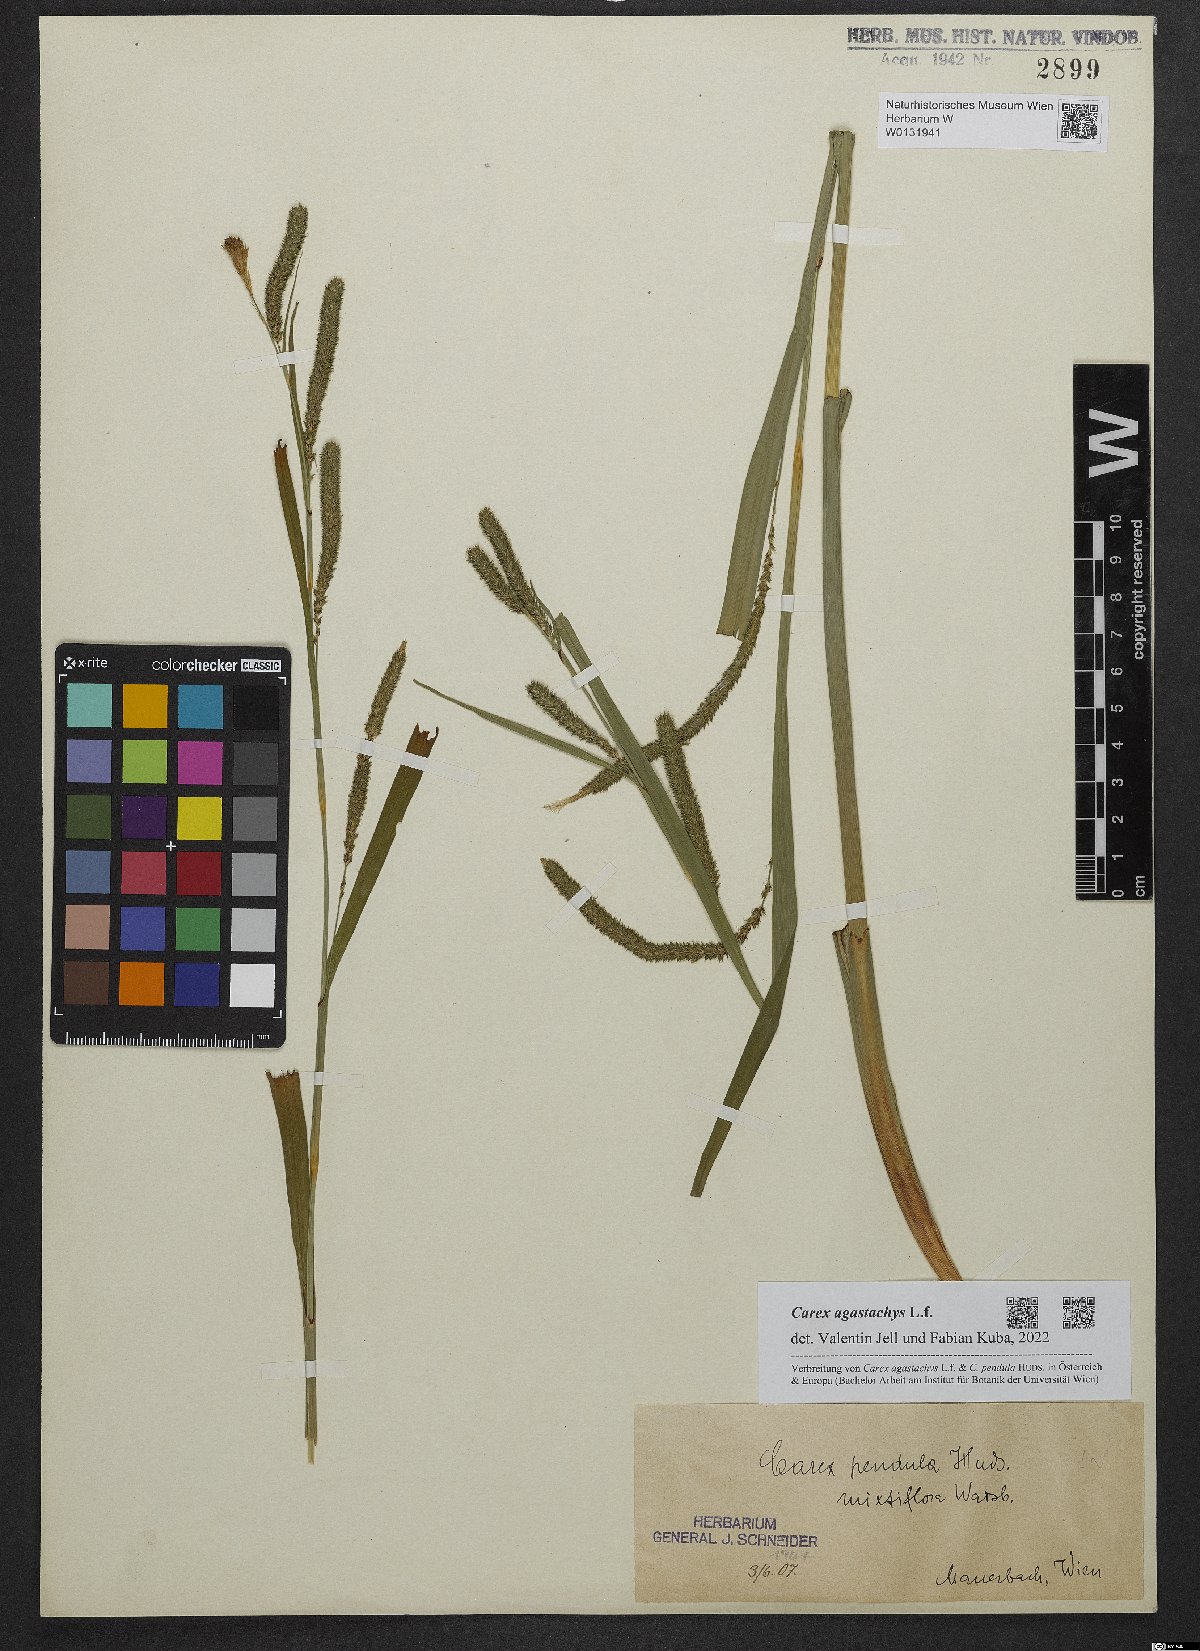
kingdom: Plantae
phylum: Tracheophyta
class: Liliopsida
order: Poales
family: Cyperaceae
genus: Carex
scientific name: Carex agastachys
